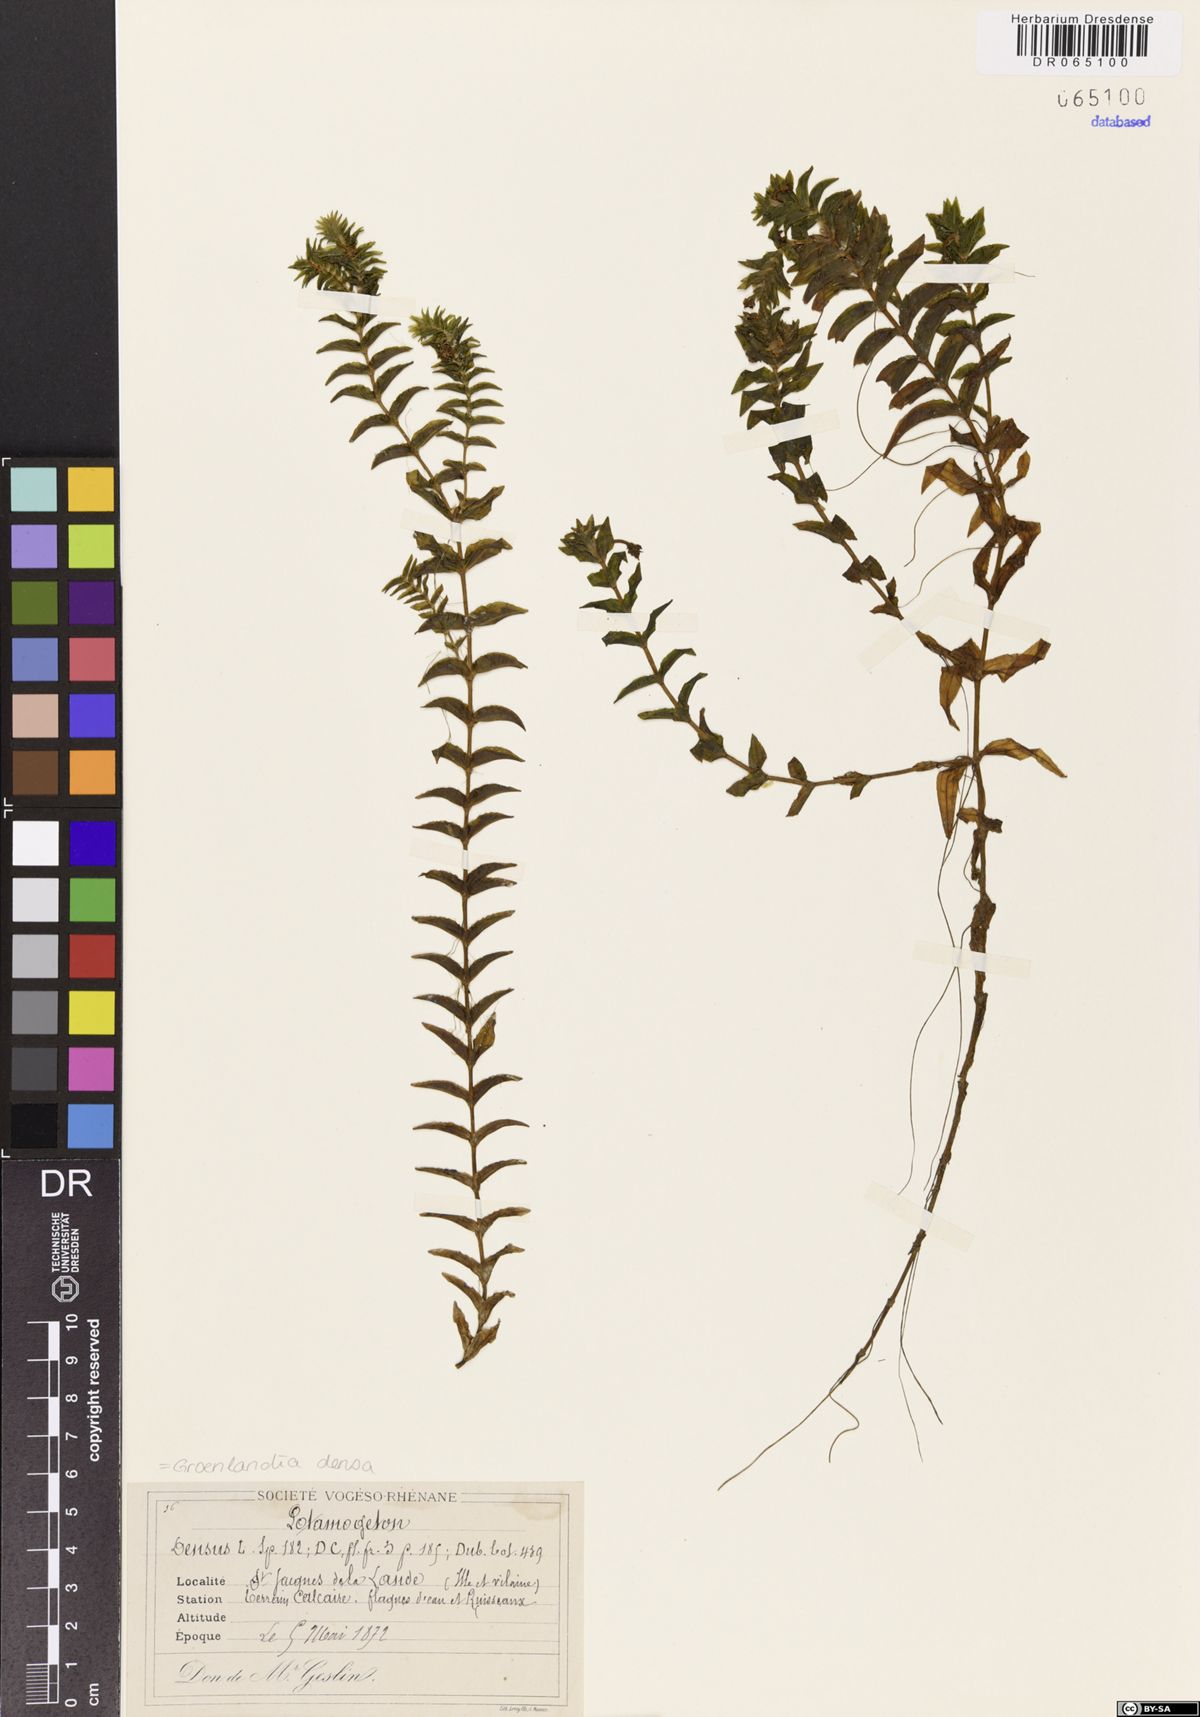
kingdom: Plantae
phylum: Tracheophyta
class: Liliopsida
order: Alismatales
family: Potamogetonaceae
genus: Groenlandia
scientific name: Groenlandia densa
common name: Opposite-leaved pondweed
